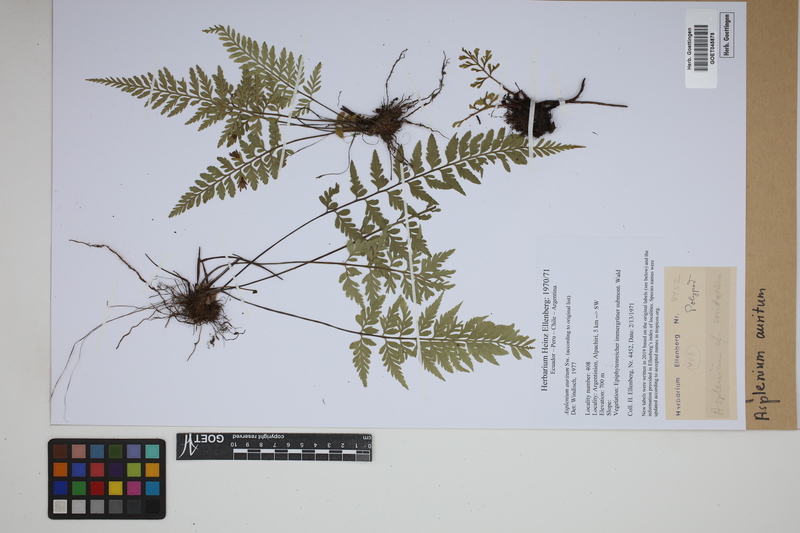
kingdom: Plantae
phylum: Tracheophyta
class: Polypodiopsida
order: Polypodiales
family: Aspleniaceae
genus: Asplenium
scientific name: Asplenium auritum
